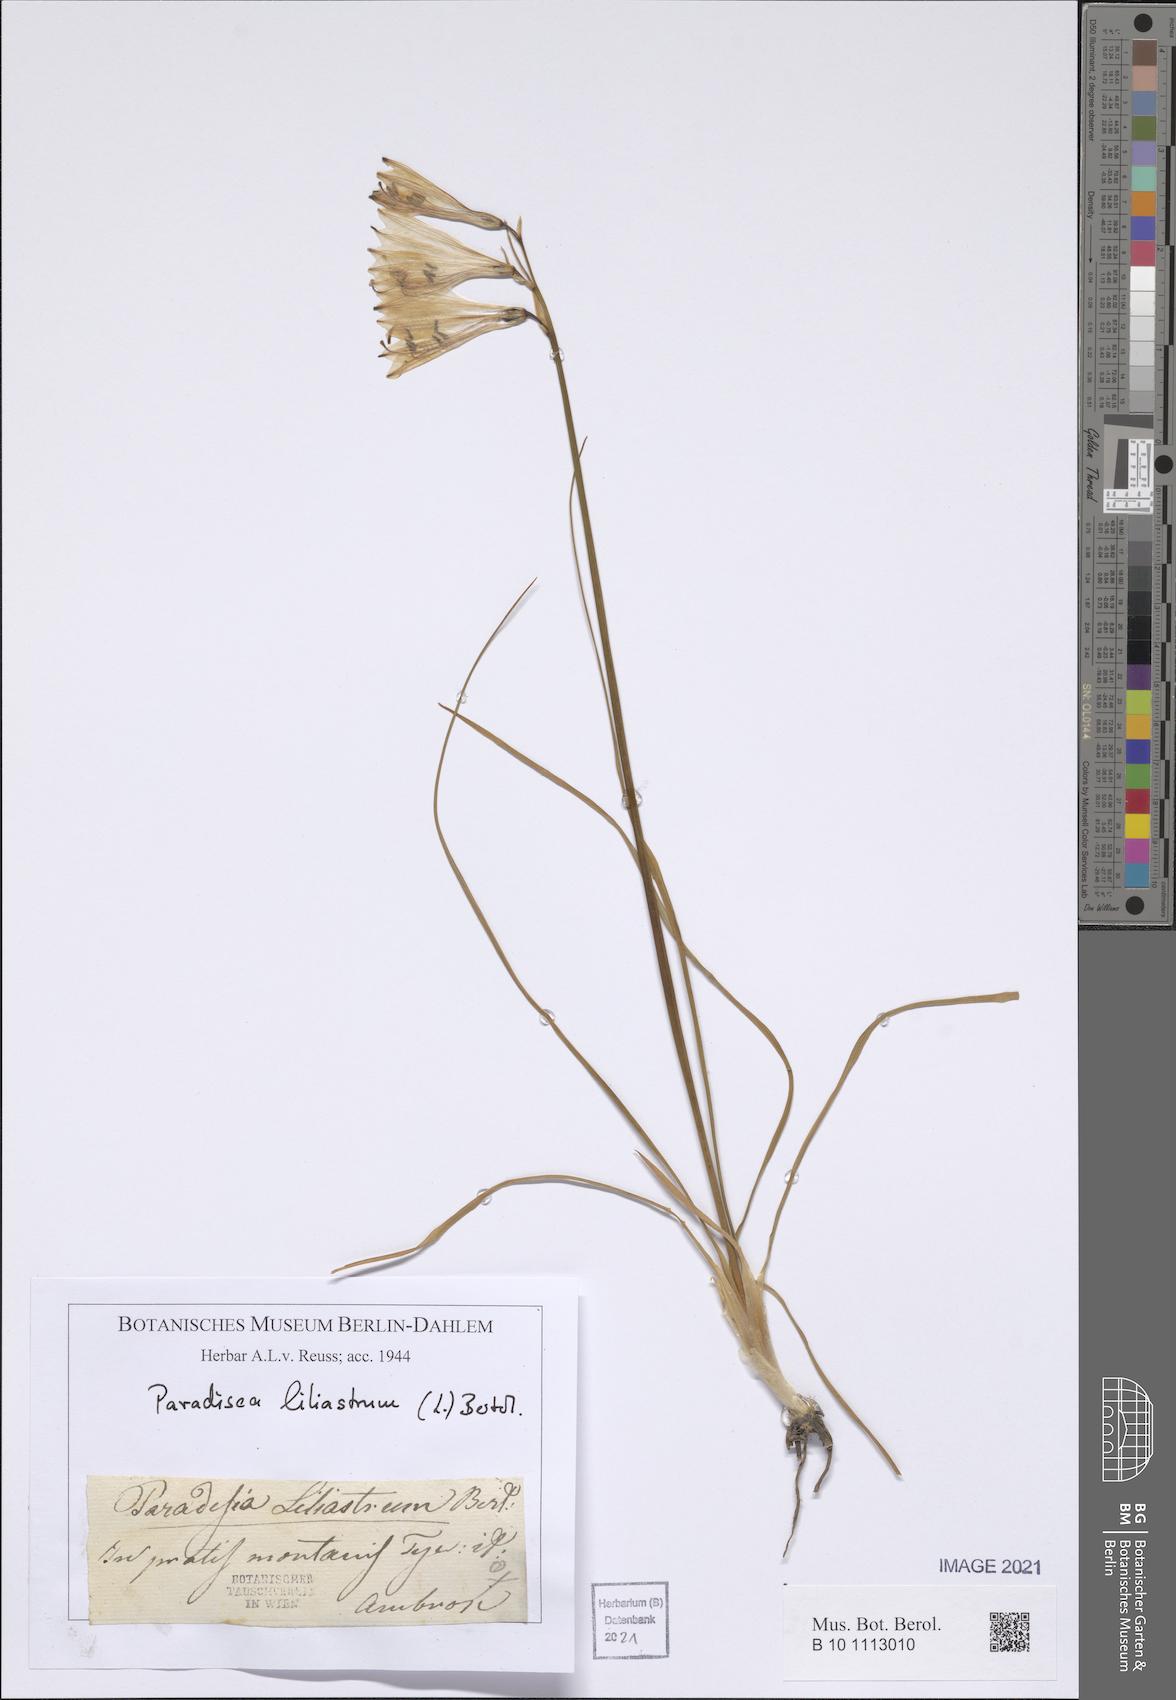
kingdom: Plantae
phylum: Tracheophyta
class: Liliopsida
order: Asparagales
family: Asparagaceae
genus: Paradisea
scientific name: Paradisea liliastrum
